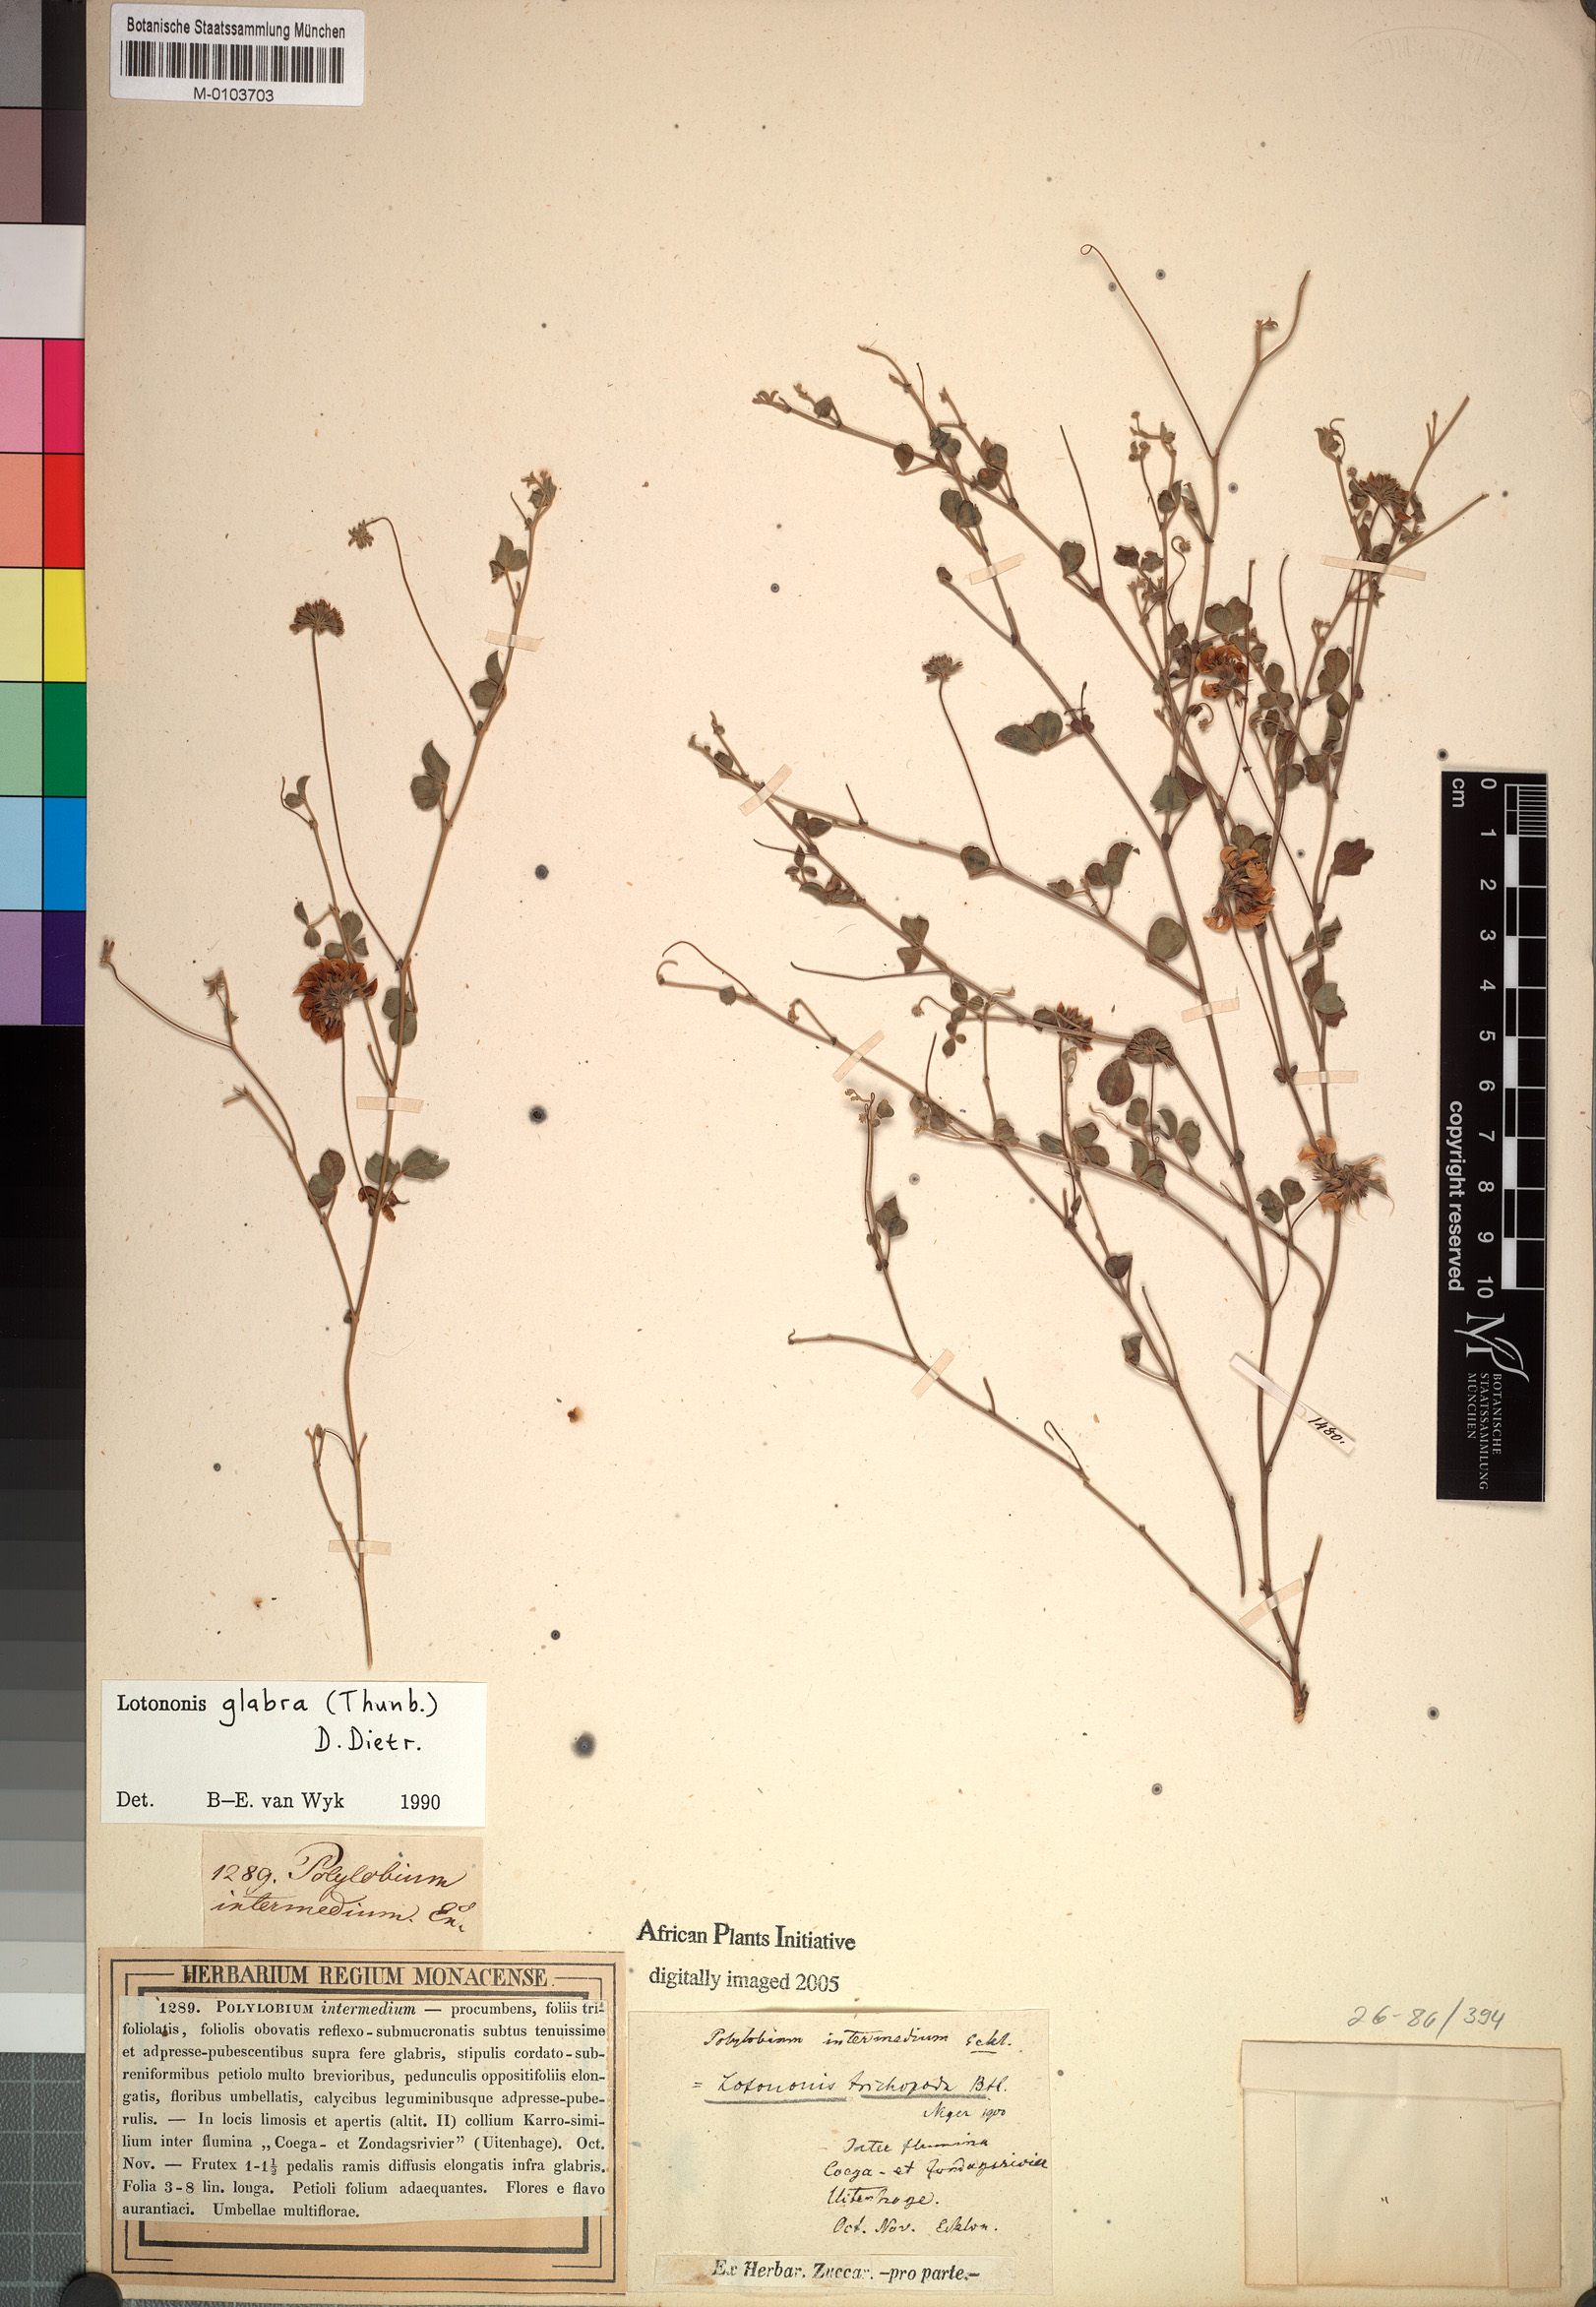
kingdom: Plantae
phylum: Tracheophyta
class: Magnoliopsida
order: Fabales
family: Fabaceae
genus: Lotononis
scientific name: Lotononis glabra
